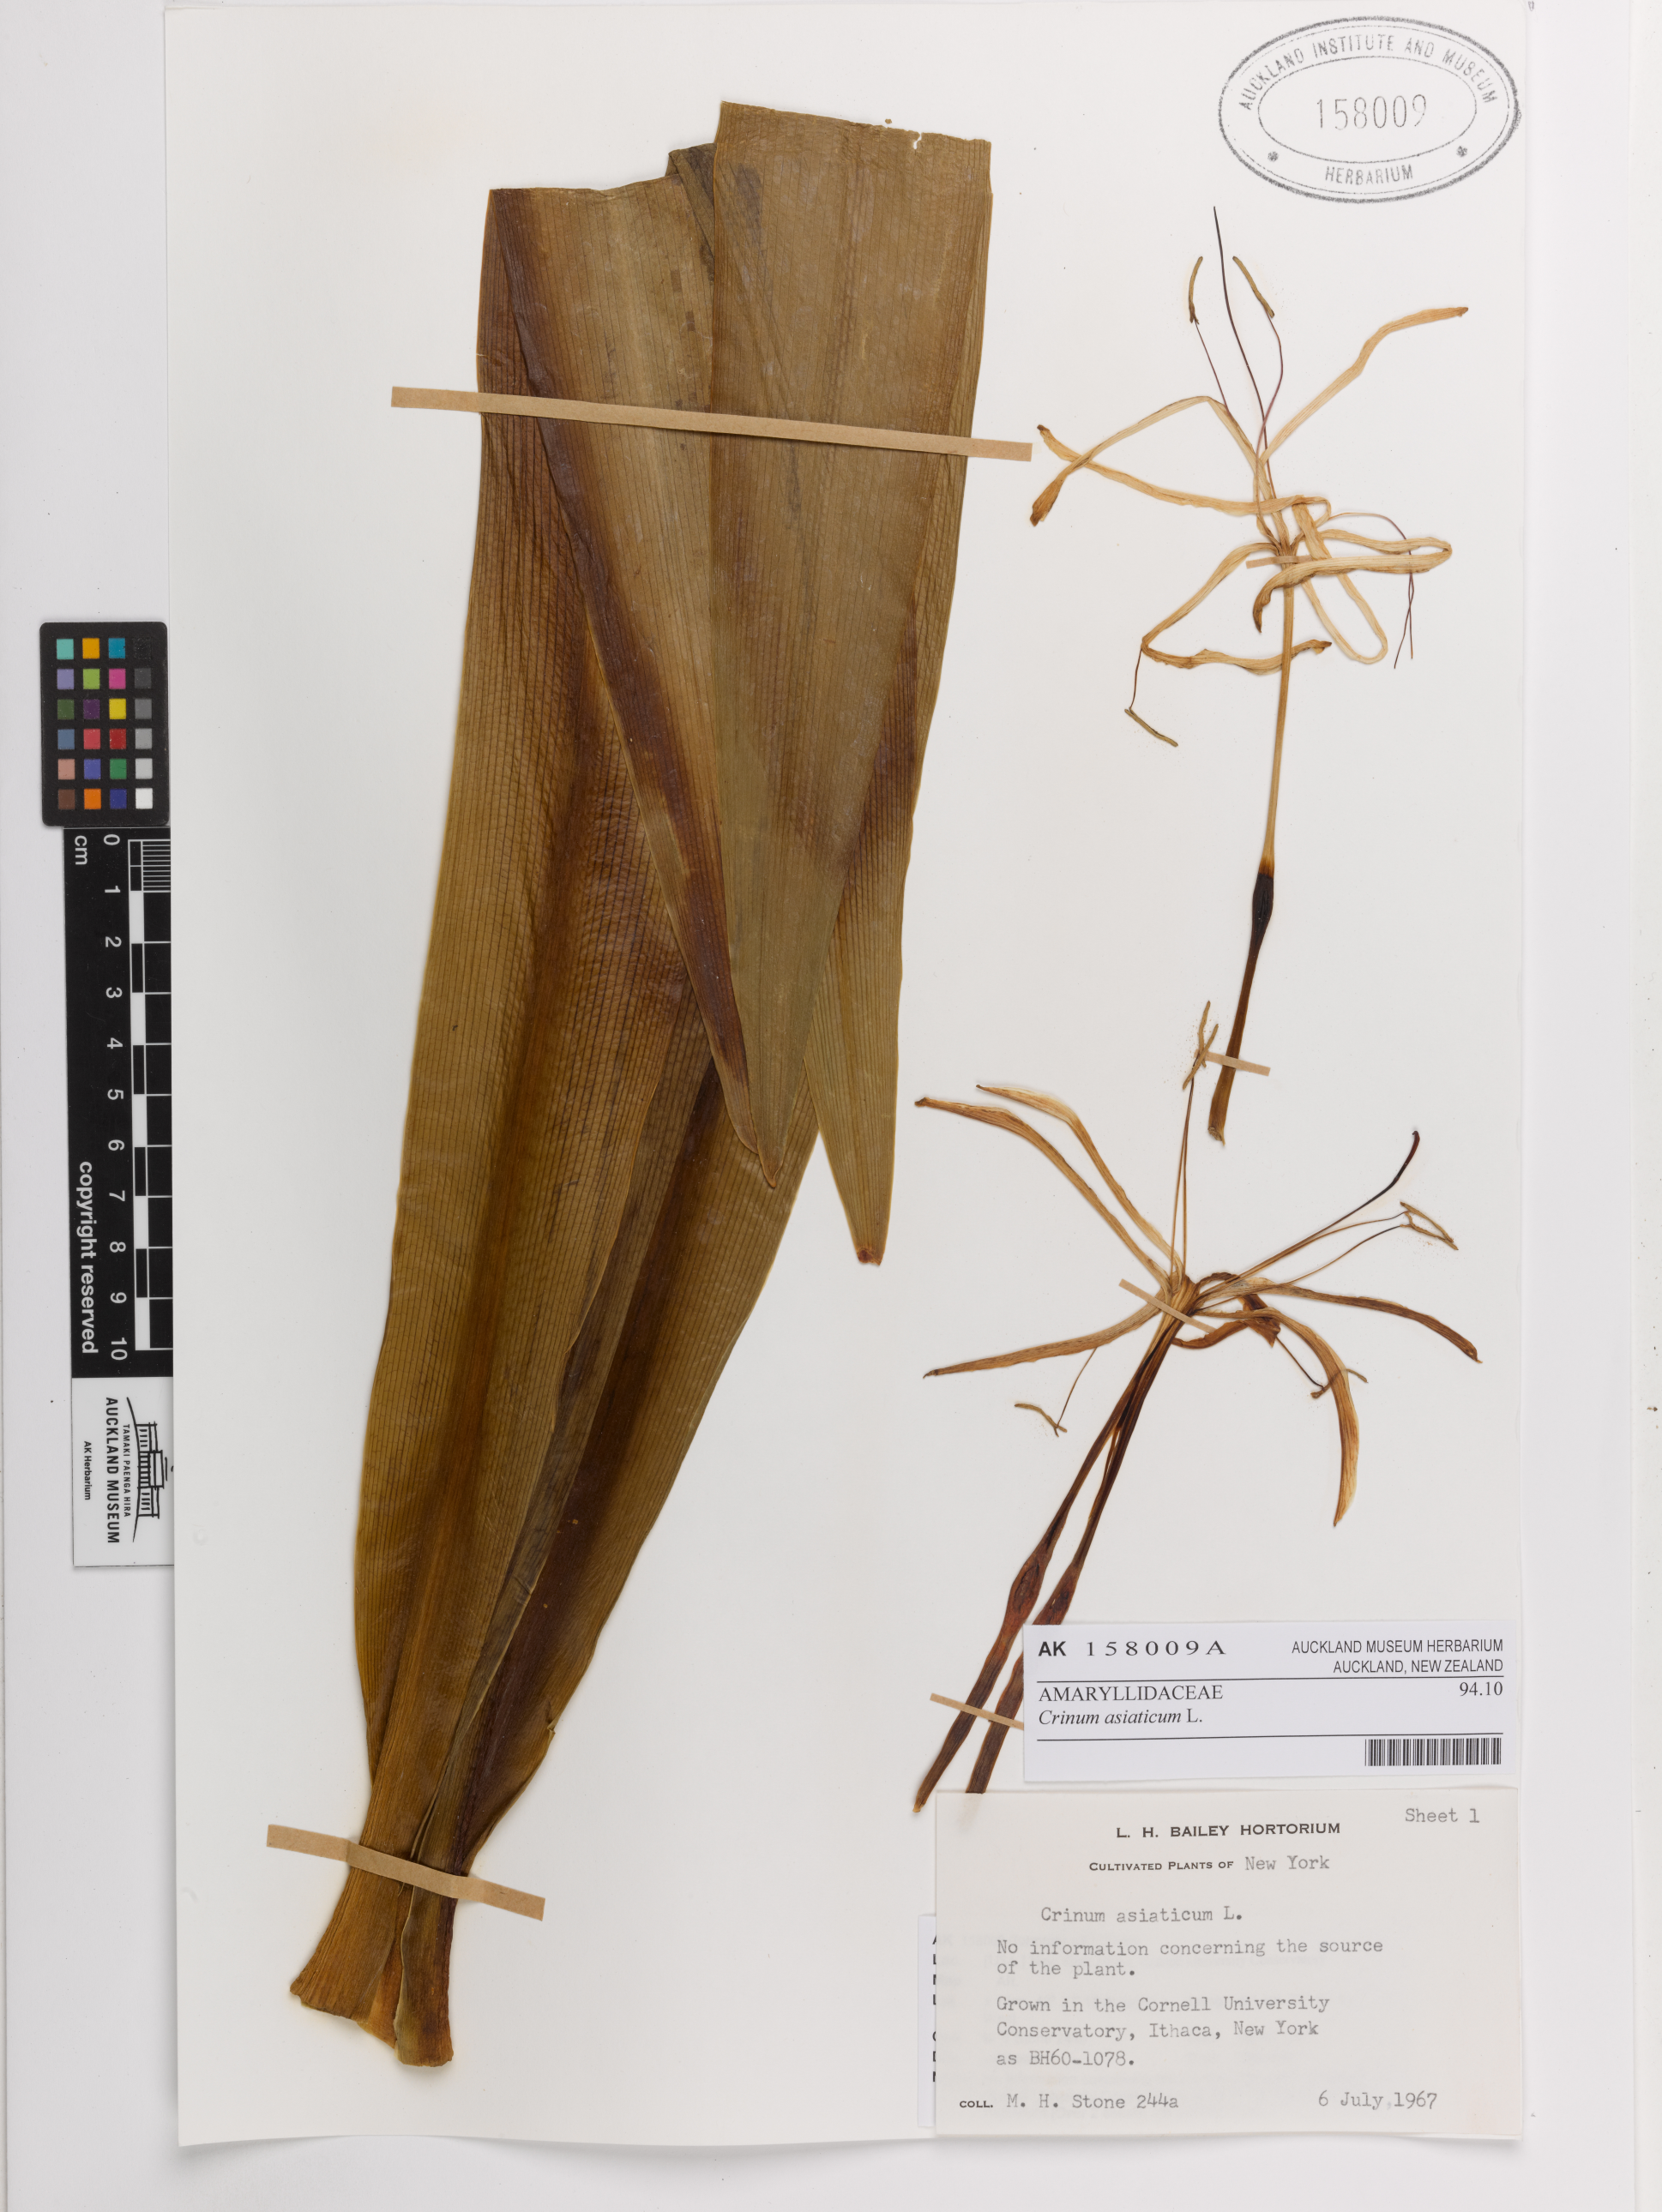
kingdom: Plantae
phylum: Tracheophyta
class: Liliopsida
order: Asparagales
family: Amaryllidaceae
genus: Crinum
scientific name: Crinum asiaticum
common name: Poisonbulb
